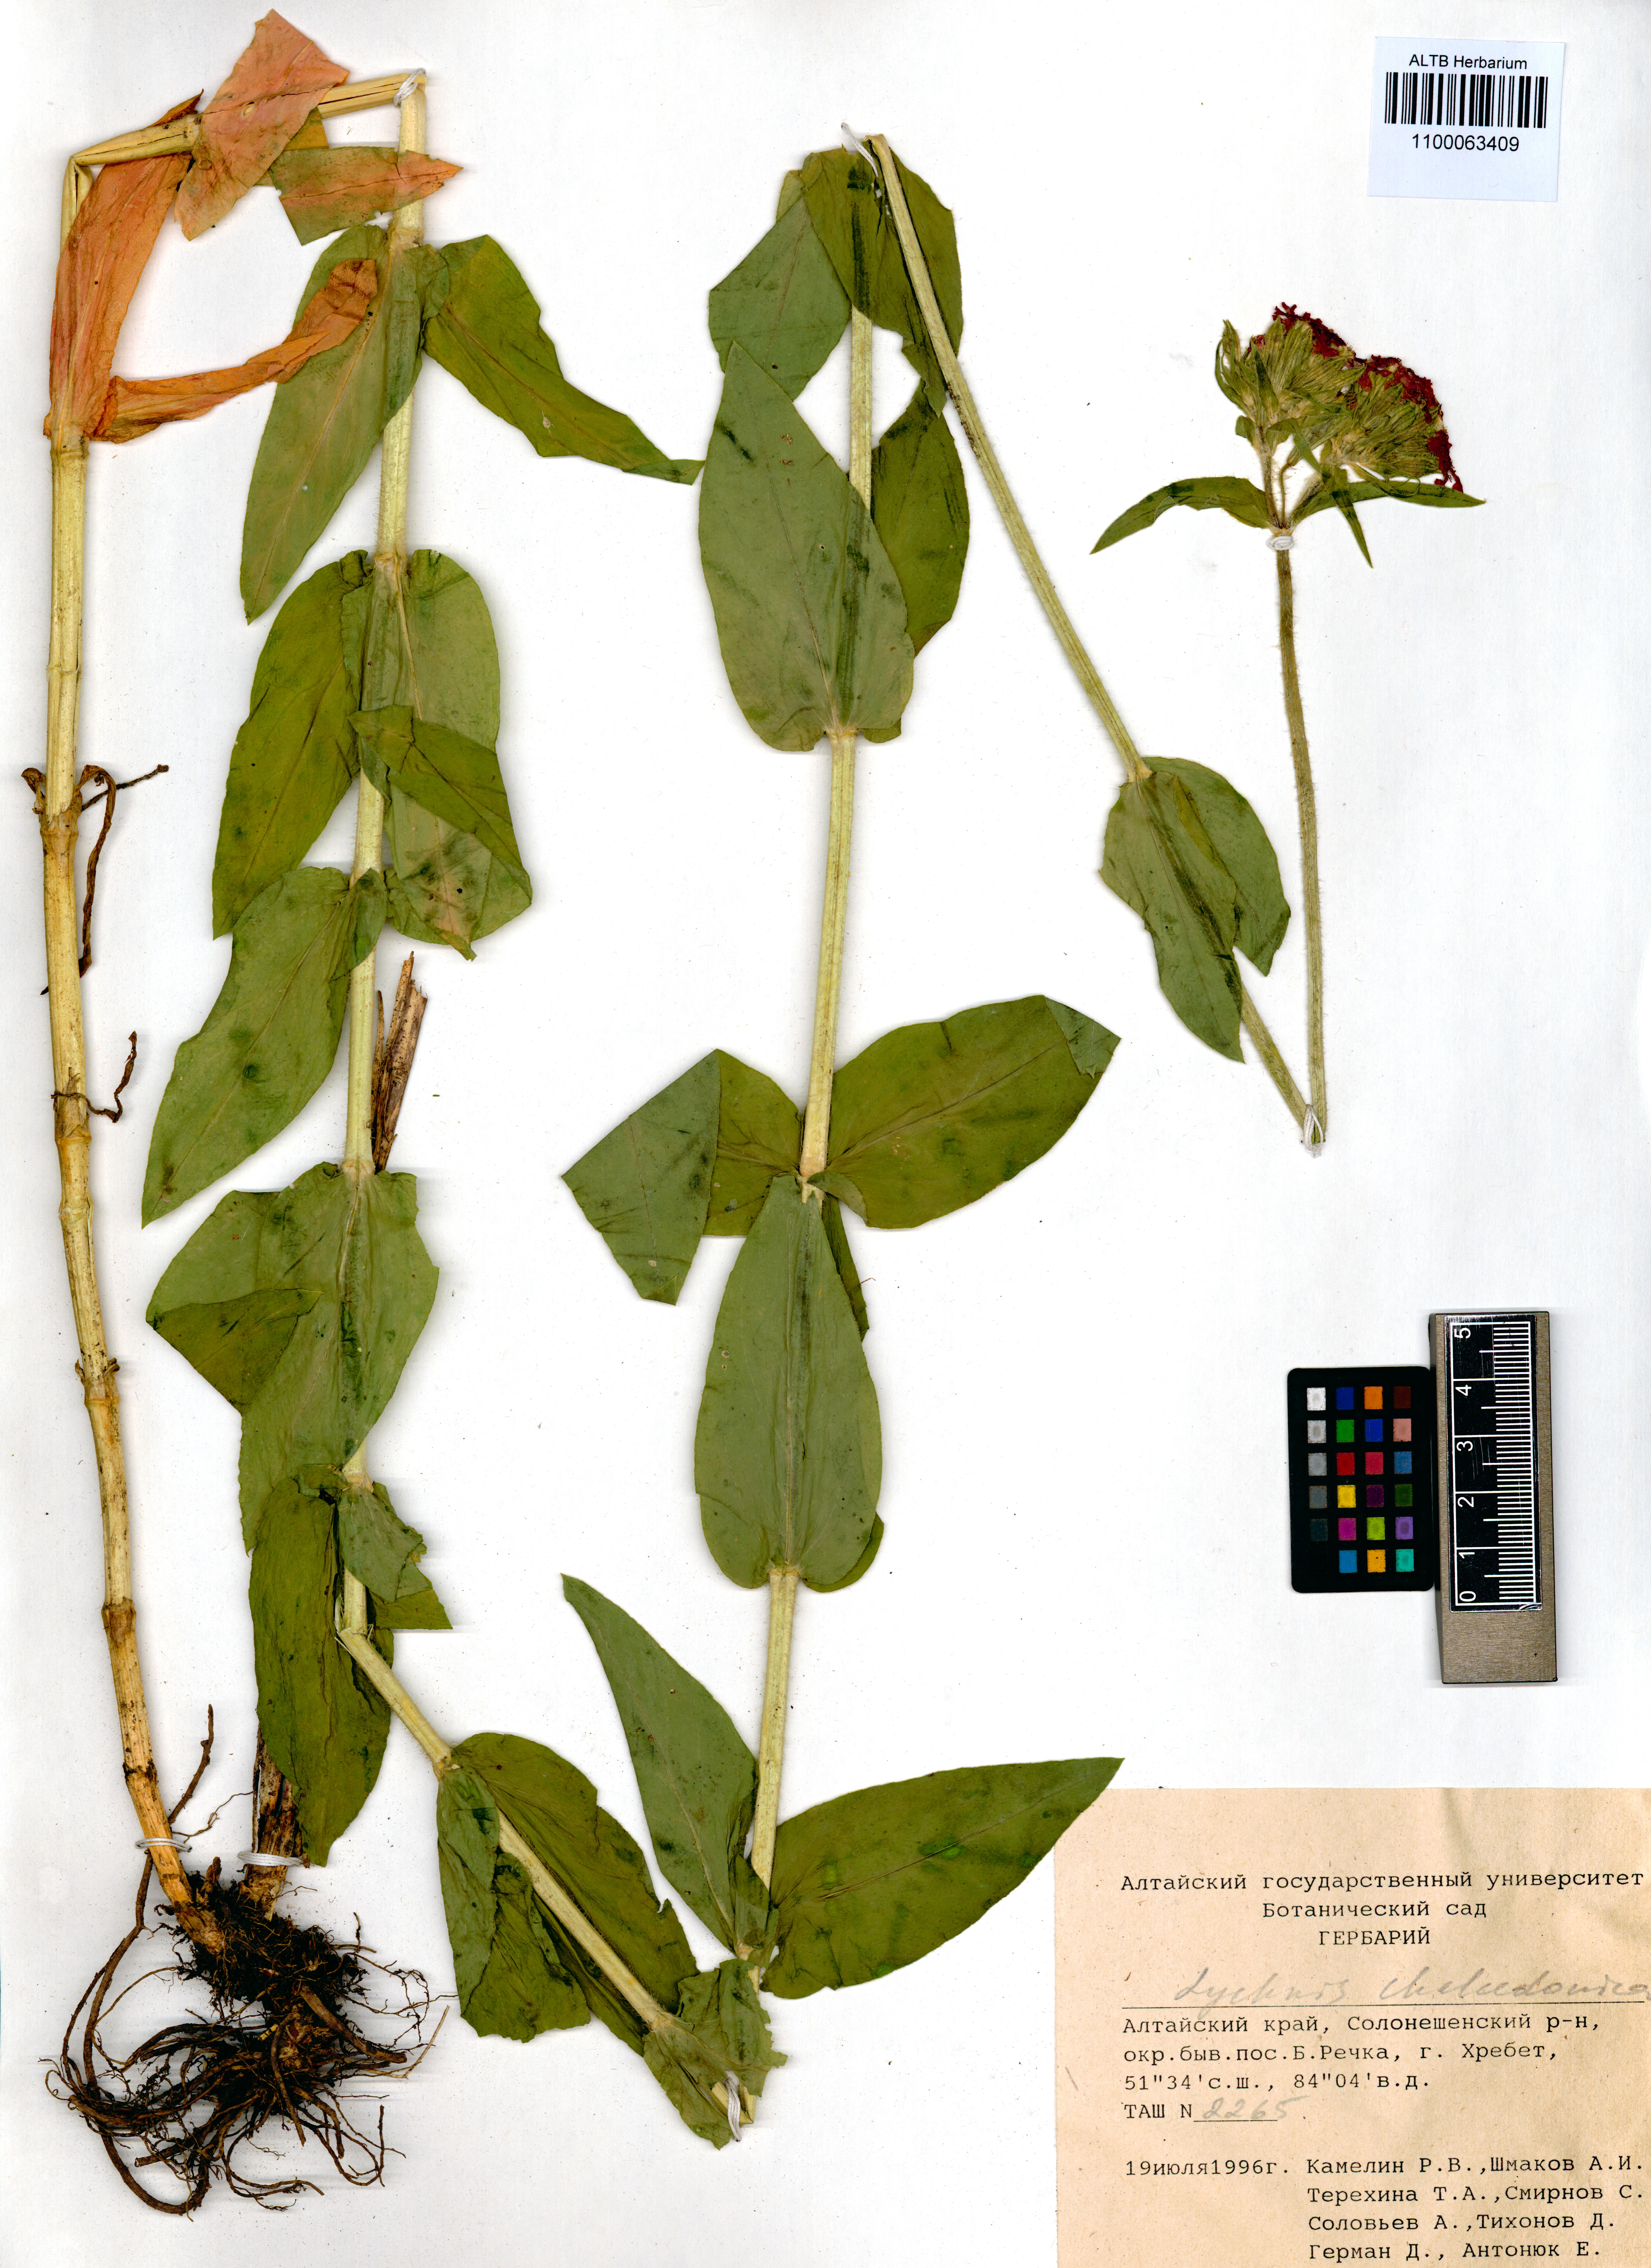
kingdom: Plantae
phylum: Tracheophyta
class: Magnoliopsida
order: Caryophyllales
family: Caryophyllaceae
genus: Silene
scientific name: Silene chalcedonica
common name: Maltese-cross
